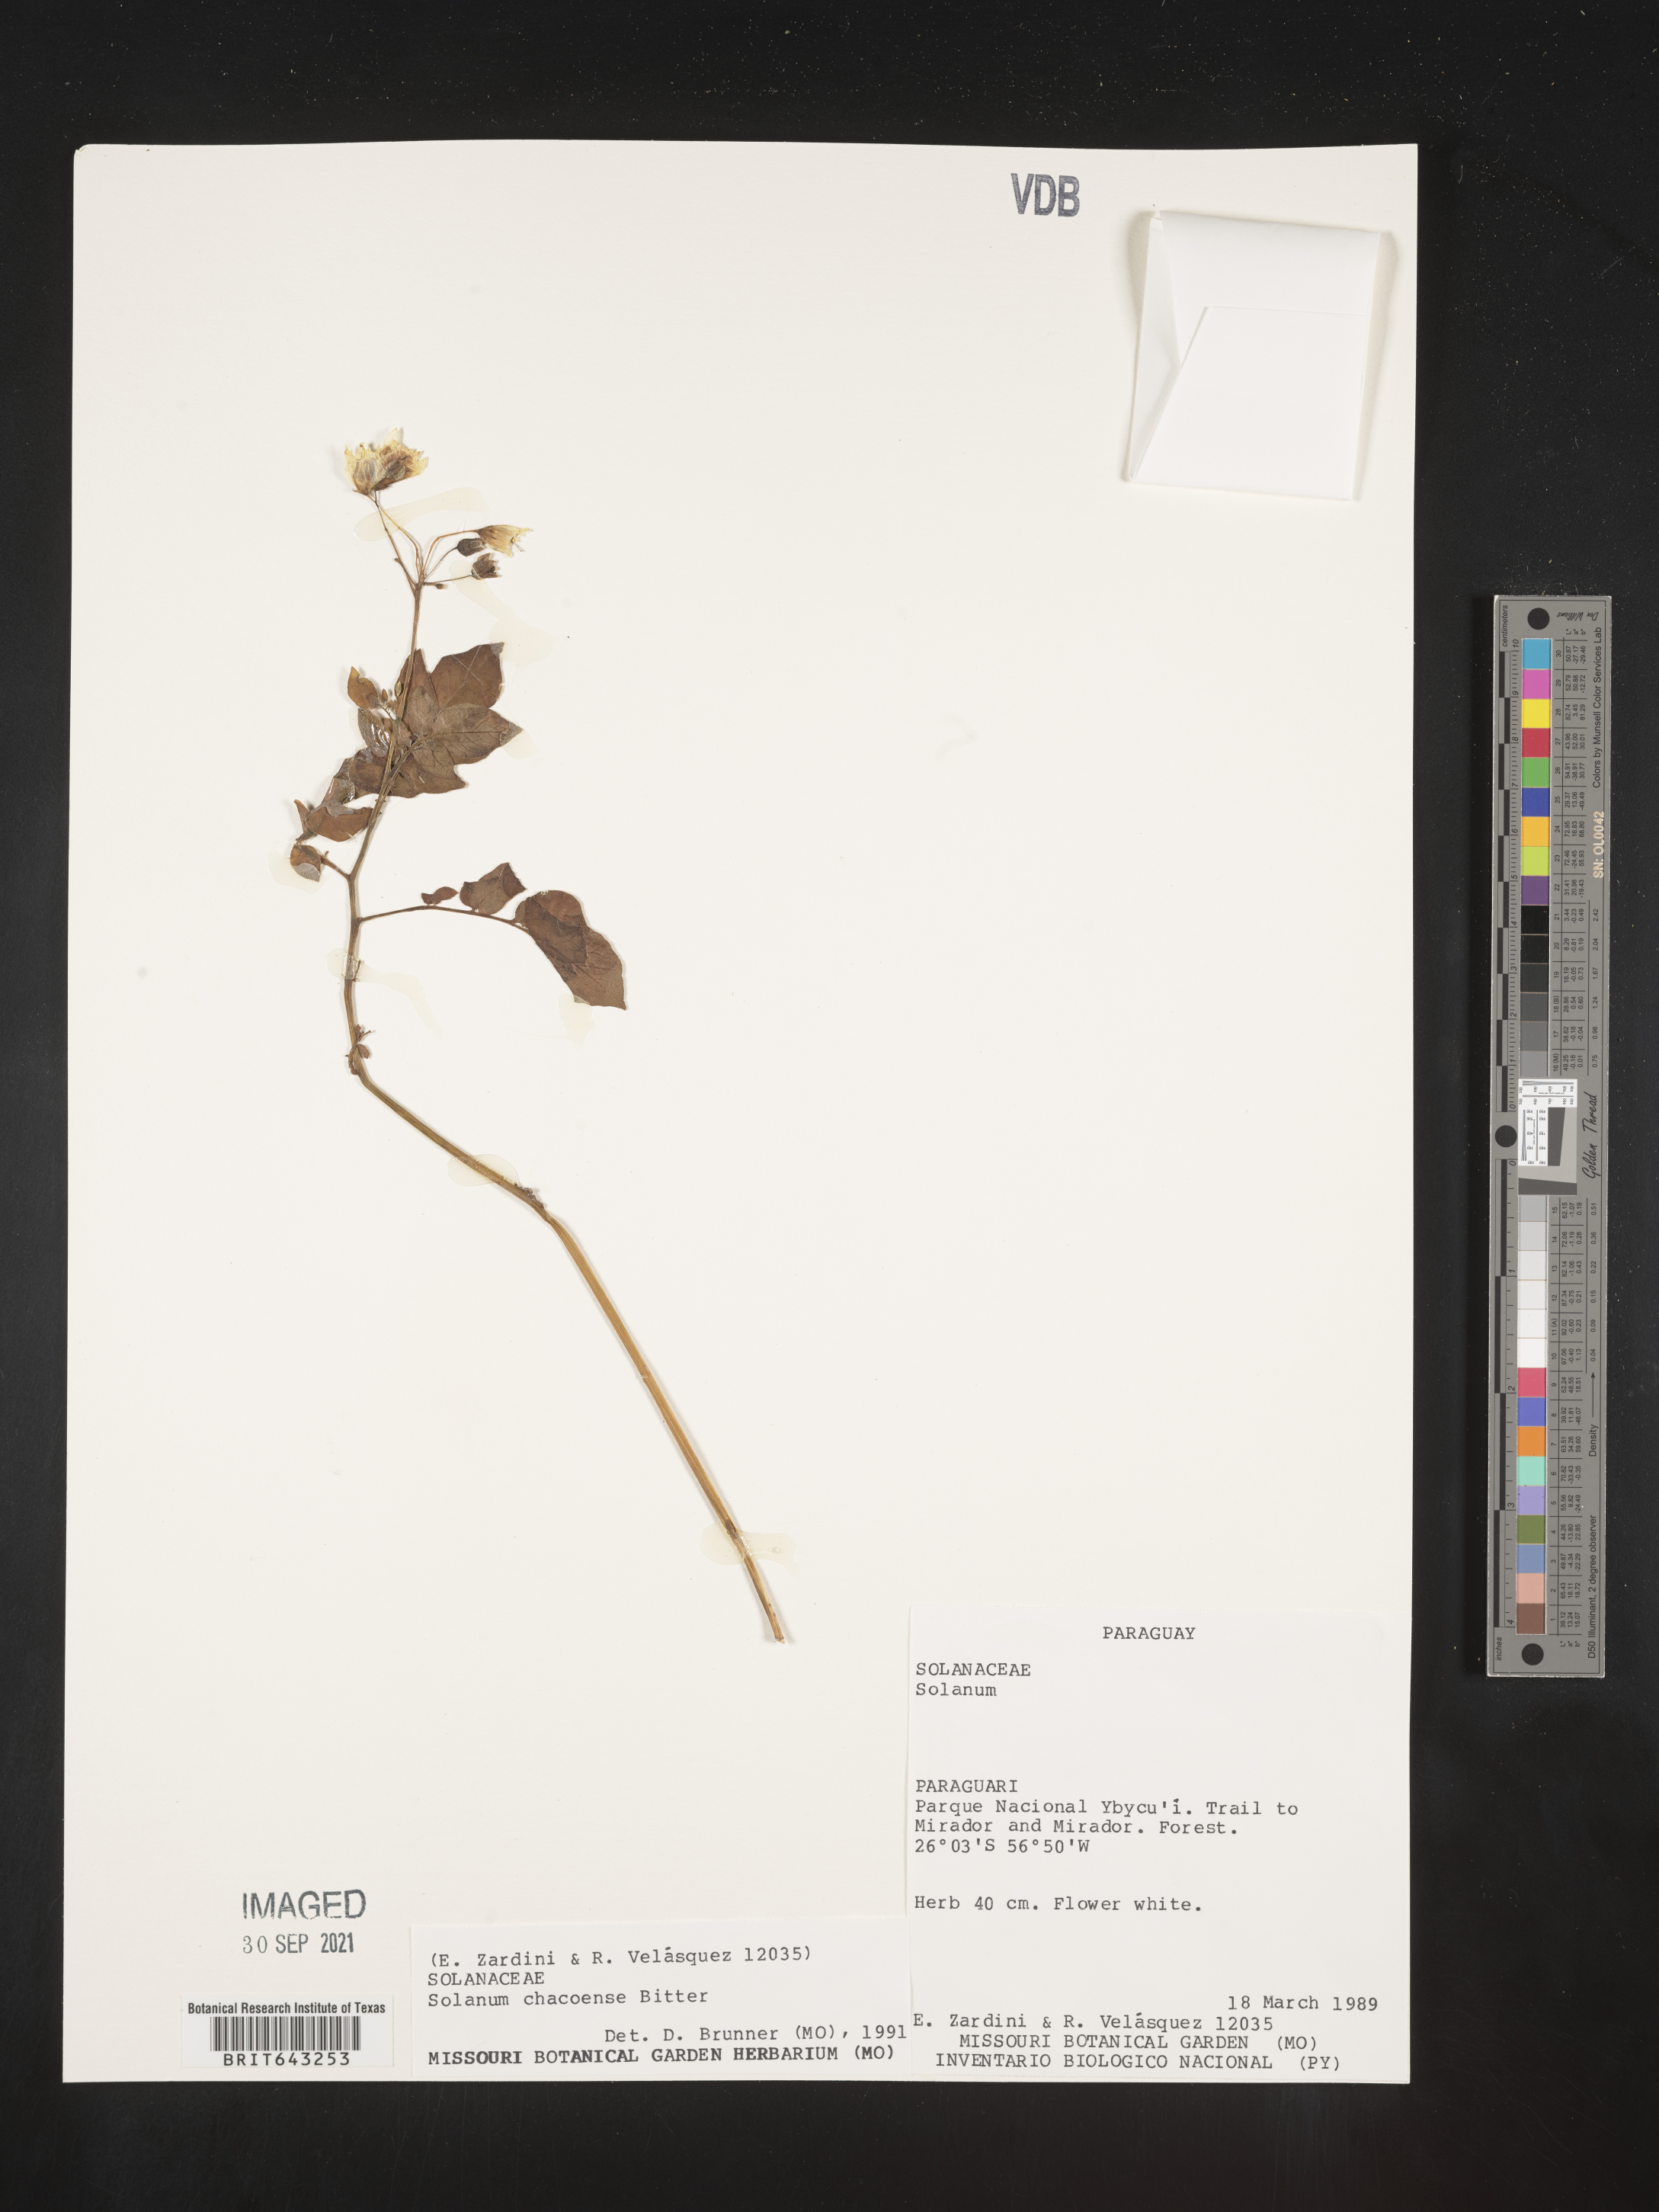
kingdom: Plantae
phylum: Tracheophyta
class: Magnoliopsida
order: Solanales
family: Solanaceae
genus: Solanum
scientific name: Solanum
